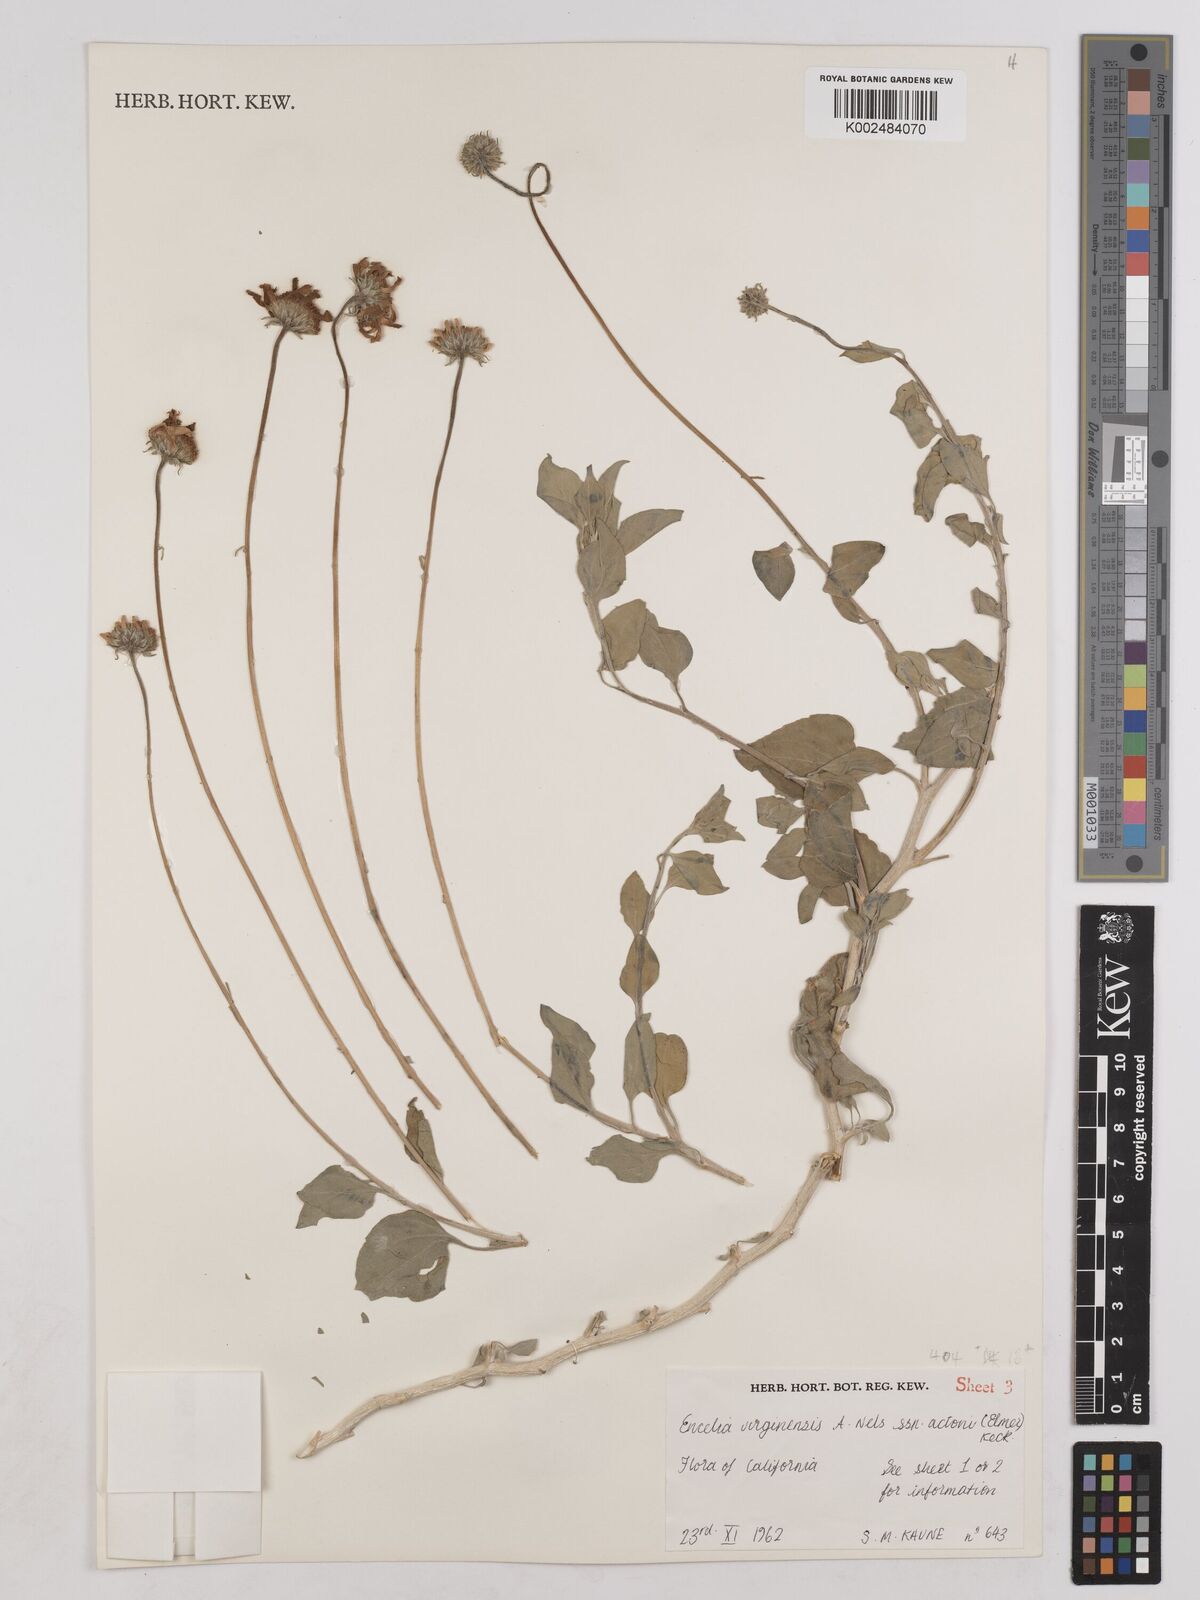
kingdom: Plantae
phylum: Tracheophyta
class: Magnoliopsida
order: Asterales
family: Asteraceae
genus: Encelia
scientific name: Encelia actoni
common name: Acton encelia
